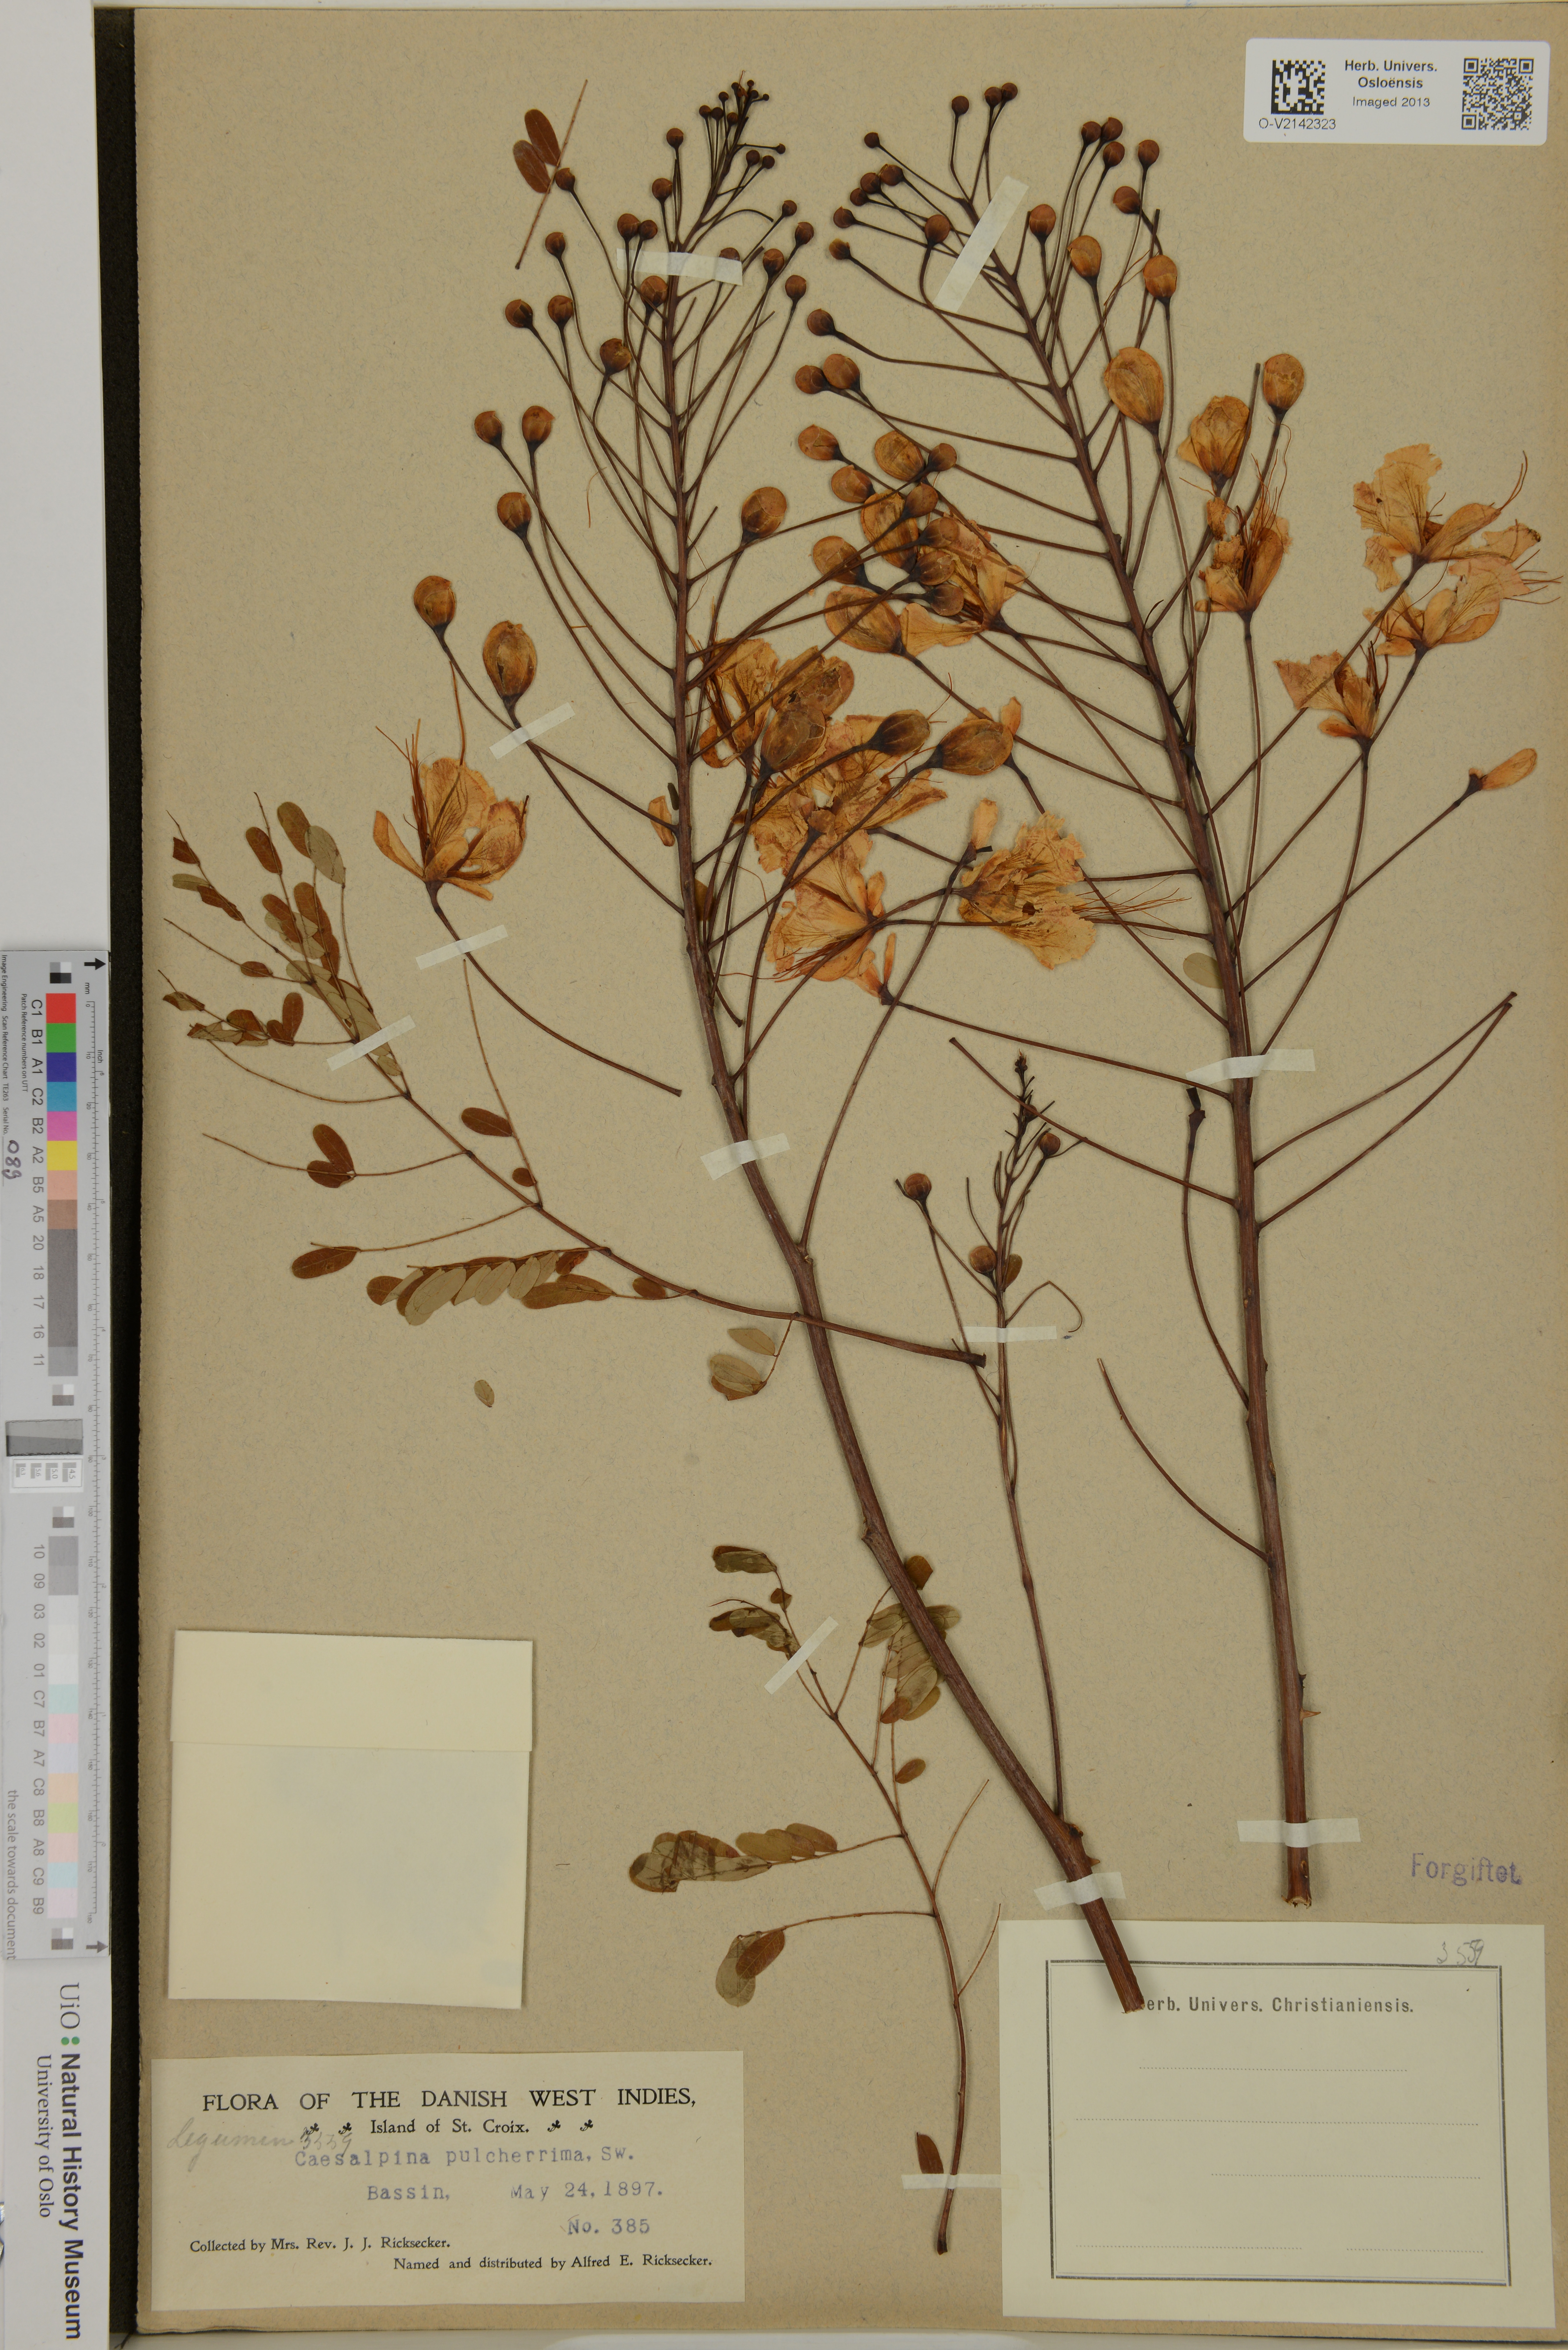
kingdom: Plantae
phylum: Tracheophyta
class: Magnoliopsida
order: Fabales
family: Fabaceae
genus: Caesalpinia
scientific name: Caesalpinia pulcherrima
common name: Pride-of-barbados
